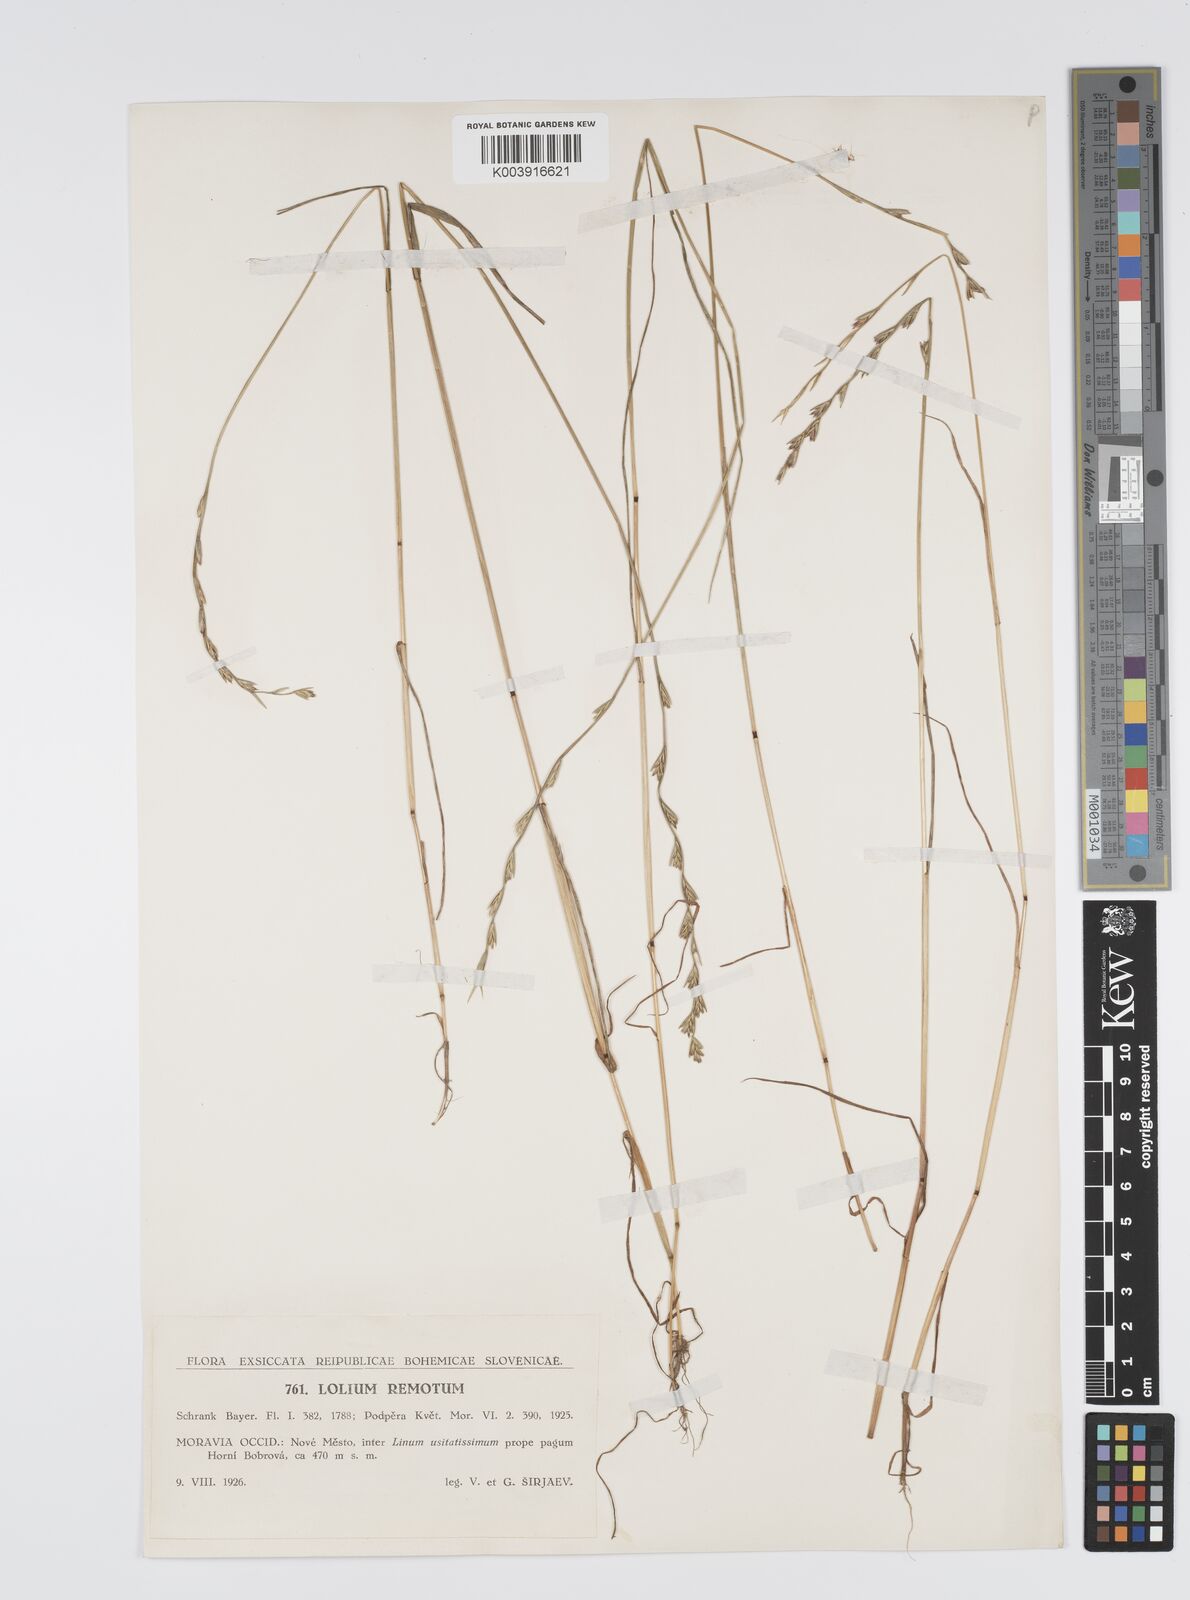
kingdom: Plantae
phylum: Tracheophyta
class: Liliopsida
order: Poales
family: Poaceae
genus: Lolium
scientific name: Lolium remotum
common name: Flaxfield rye-grass
